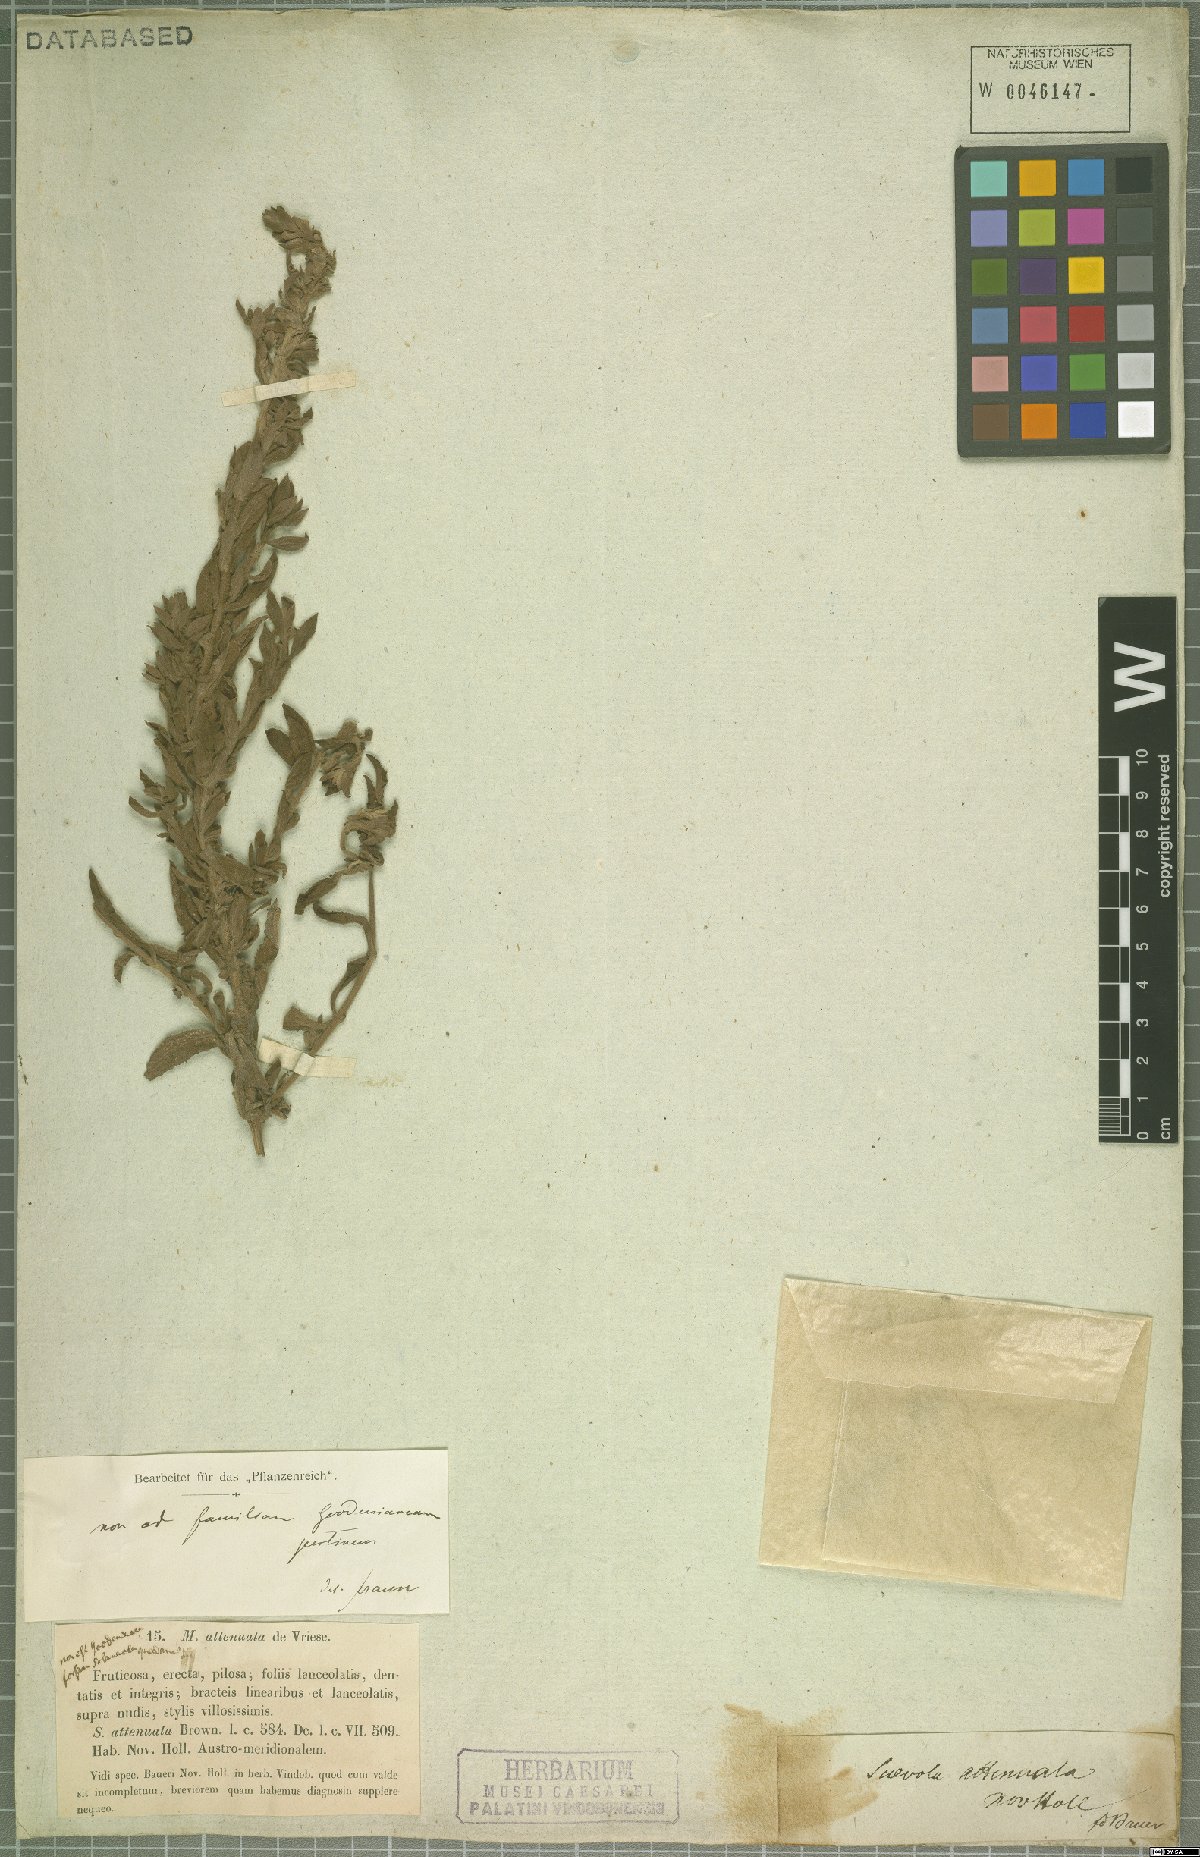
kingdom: Plantae
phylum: Tracheophyta
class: Magnoliopsida
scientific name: Magnoliopsida
